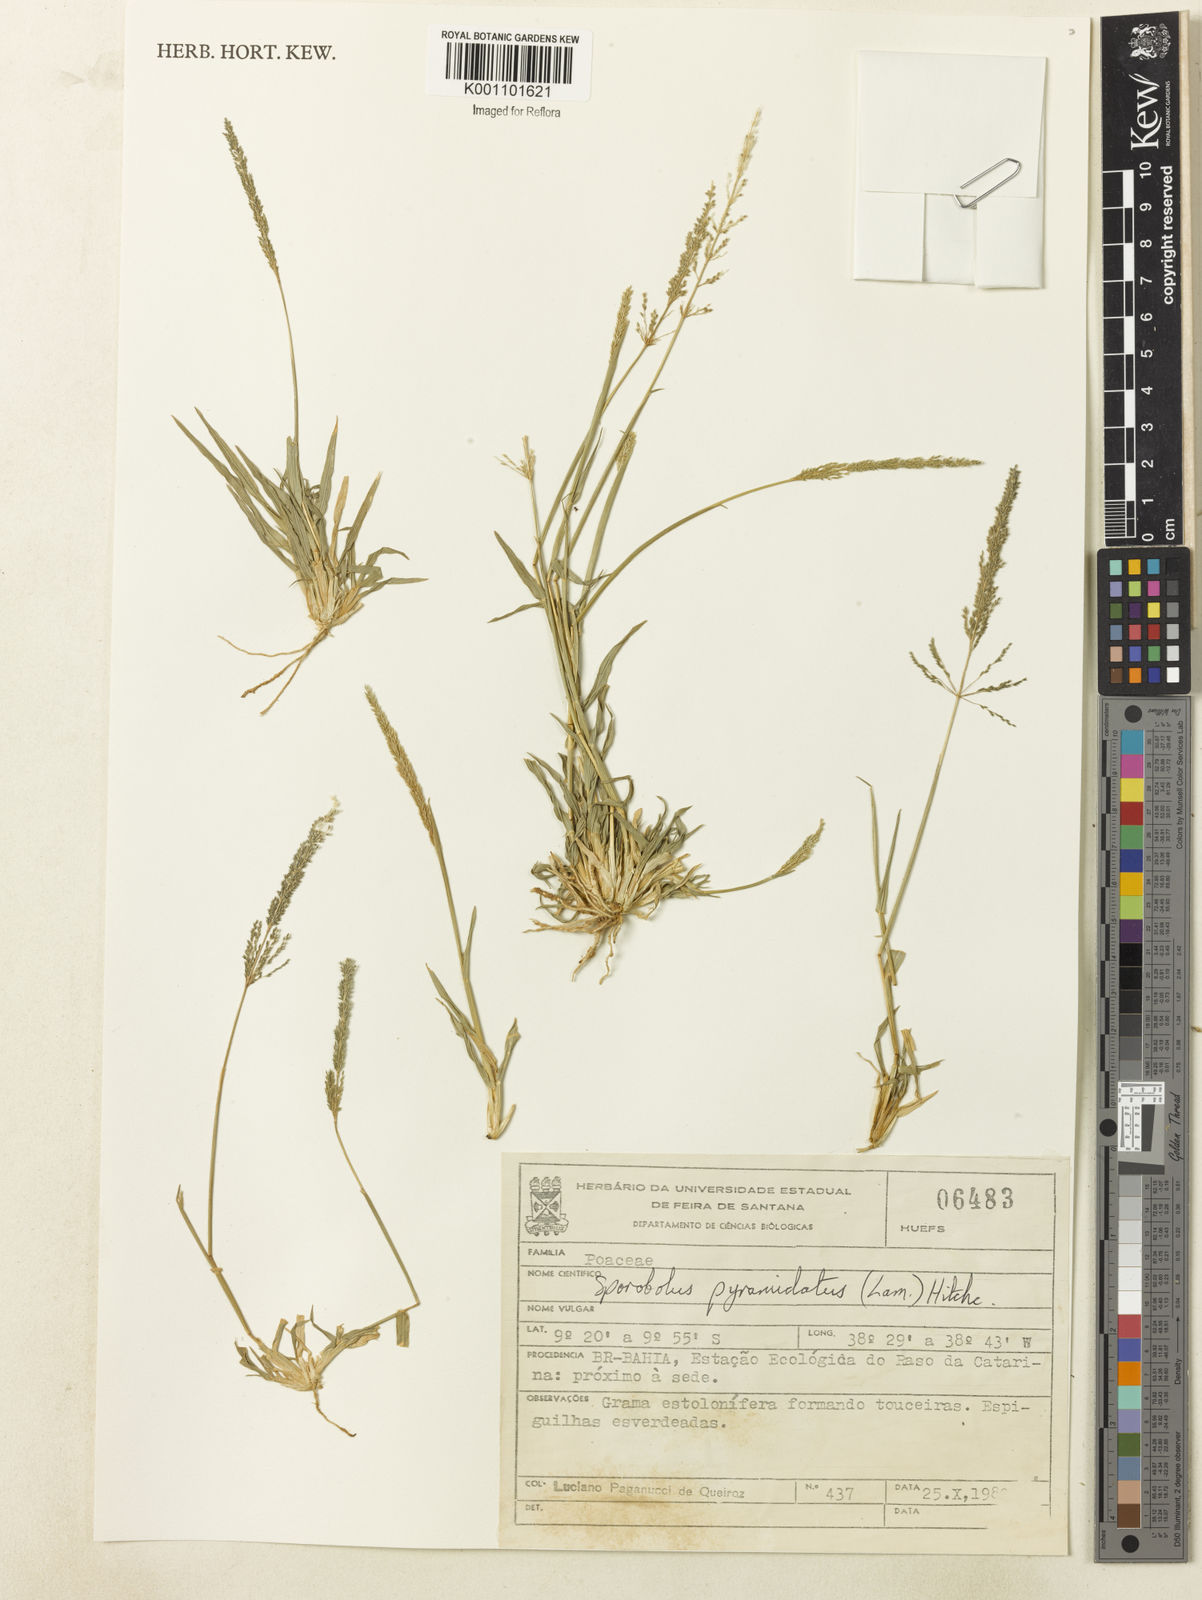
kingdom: Plantae
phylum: Tracheophyta
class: Liliopsida
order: Poales
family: Poaceae
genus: Sporobolus
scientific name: Sporobolus pyramidatus
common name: Whorled dropseed
